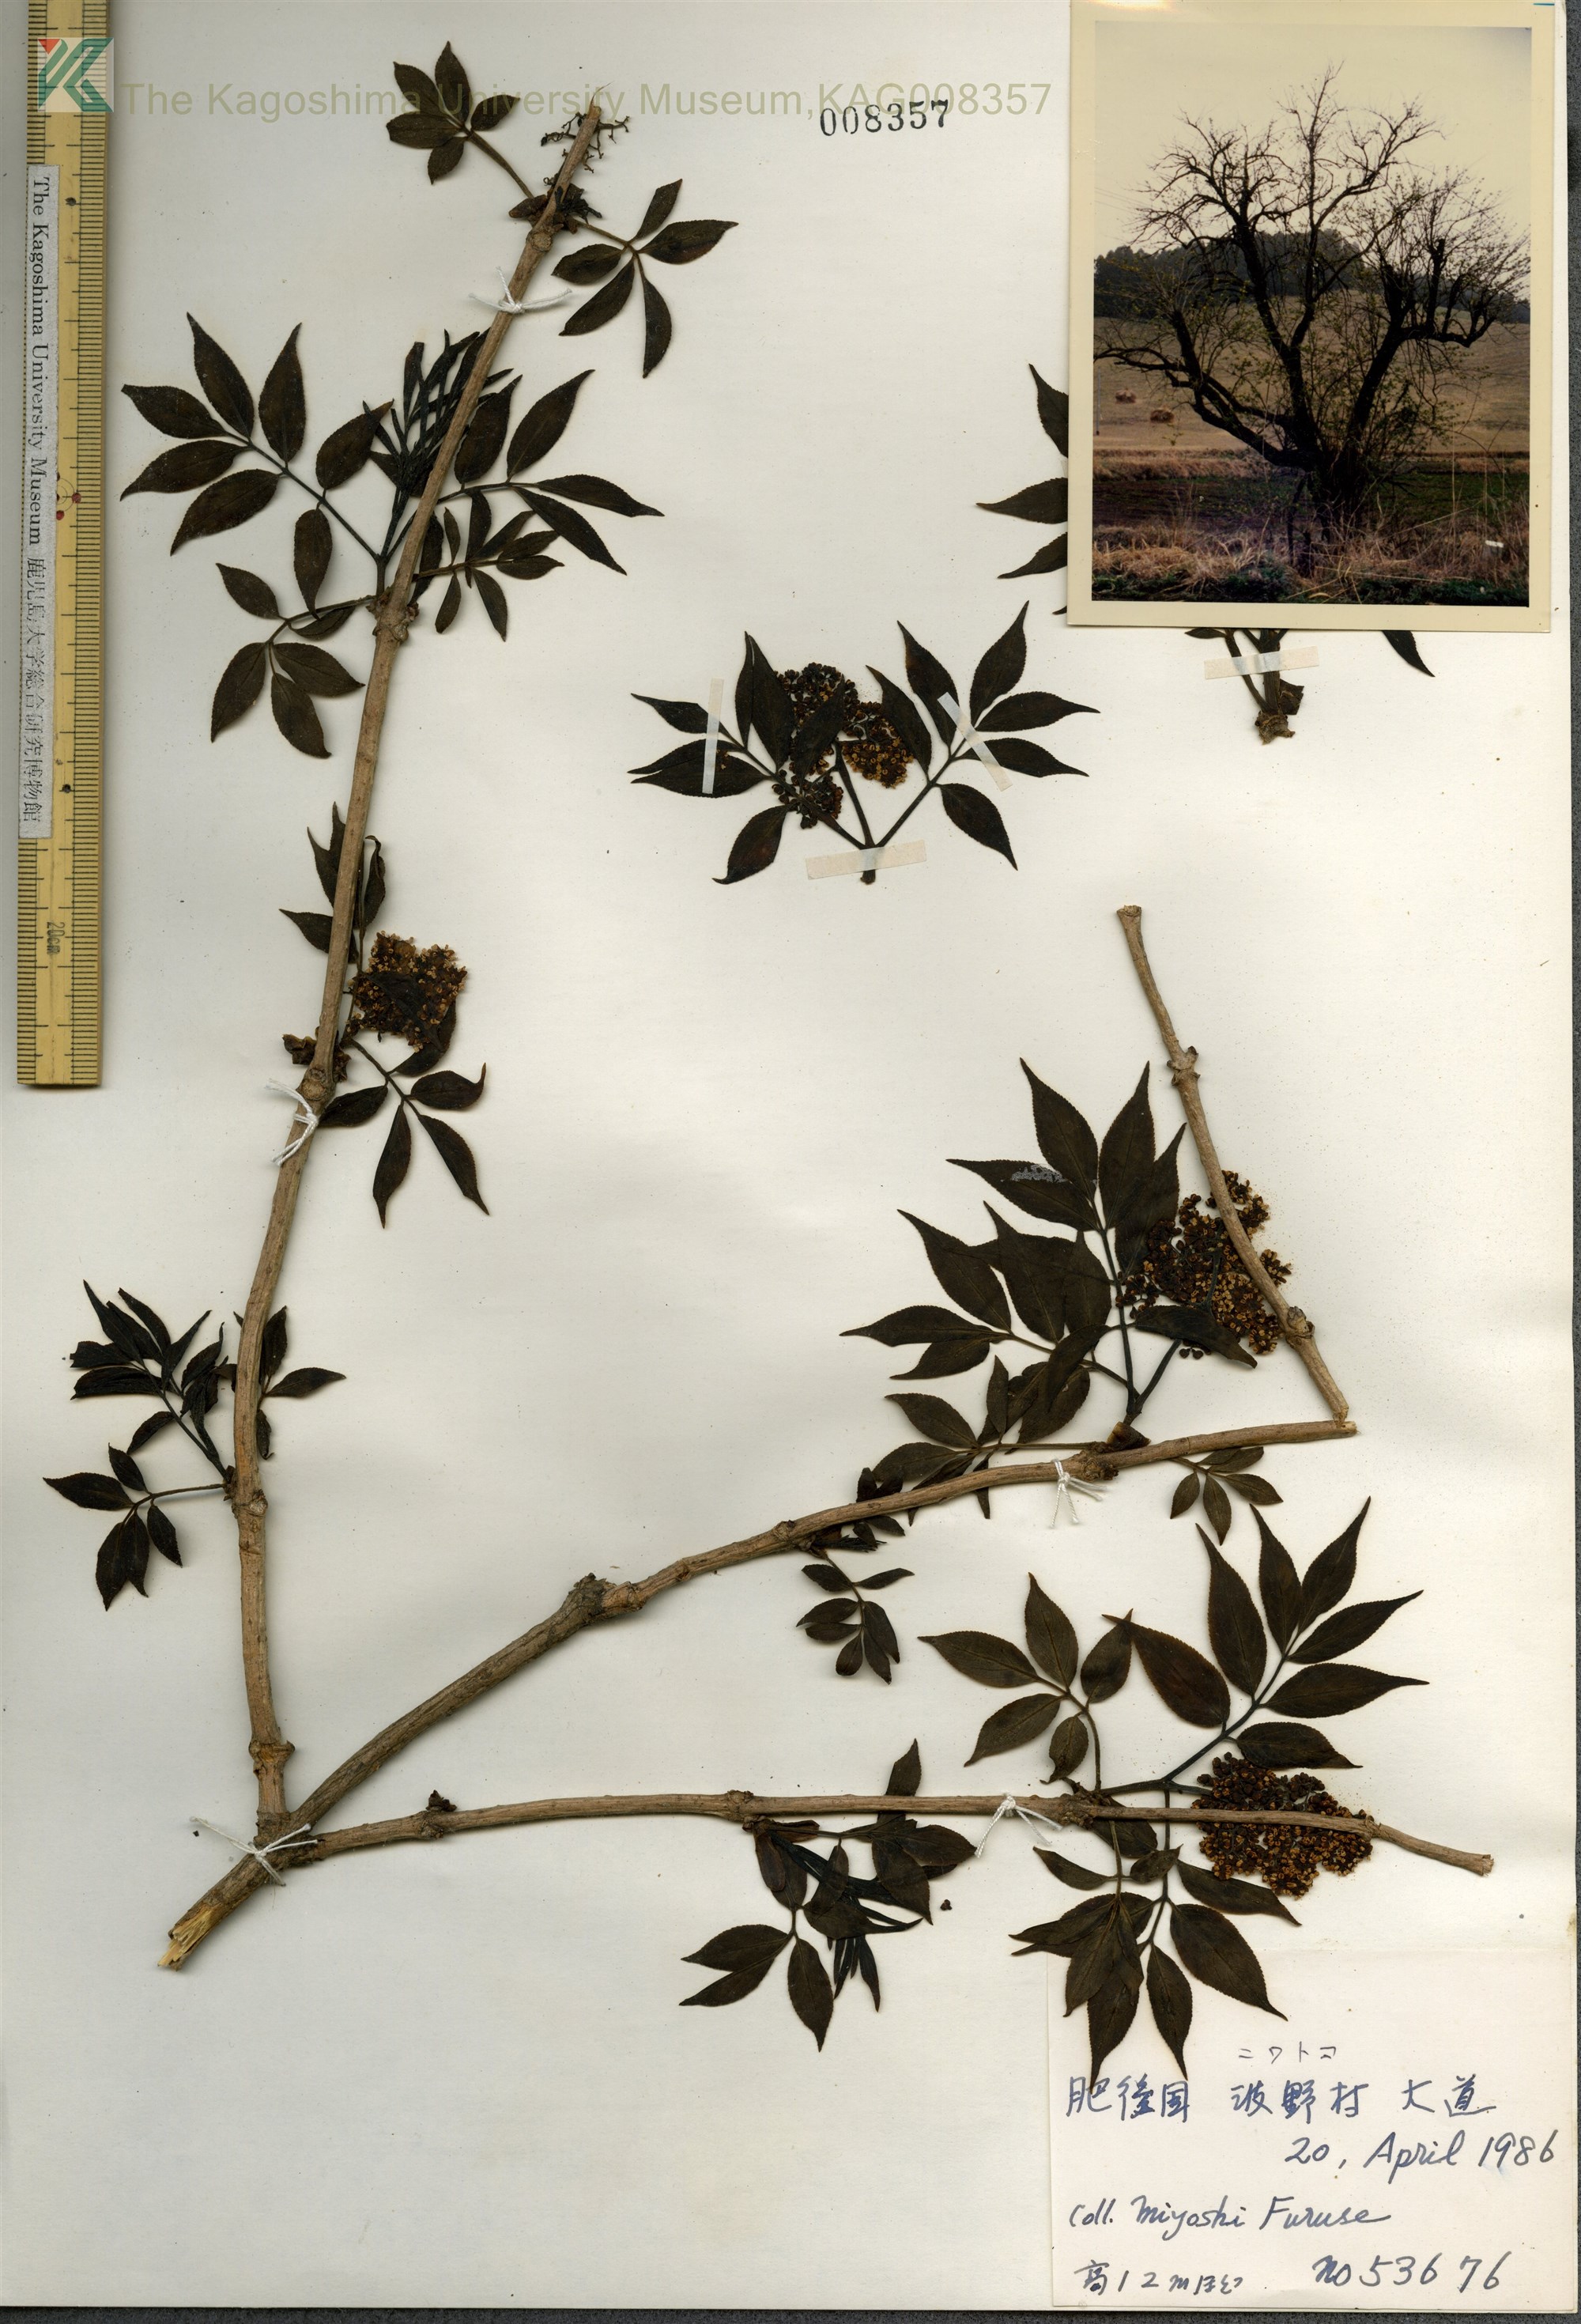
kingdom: Plantae
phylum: Tracheophyta
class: Magnoliopsida
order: Dipsacales
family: Viburnaceae
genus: Sambucus
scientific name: Sambucus sieboldiana
